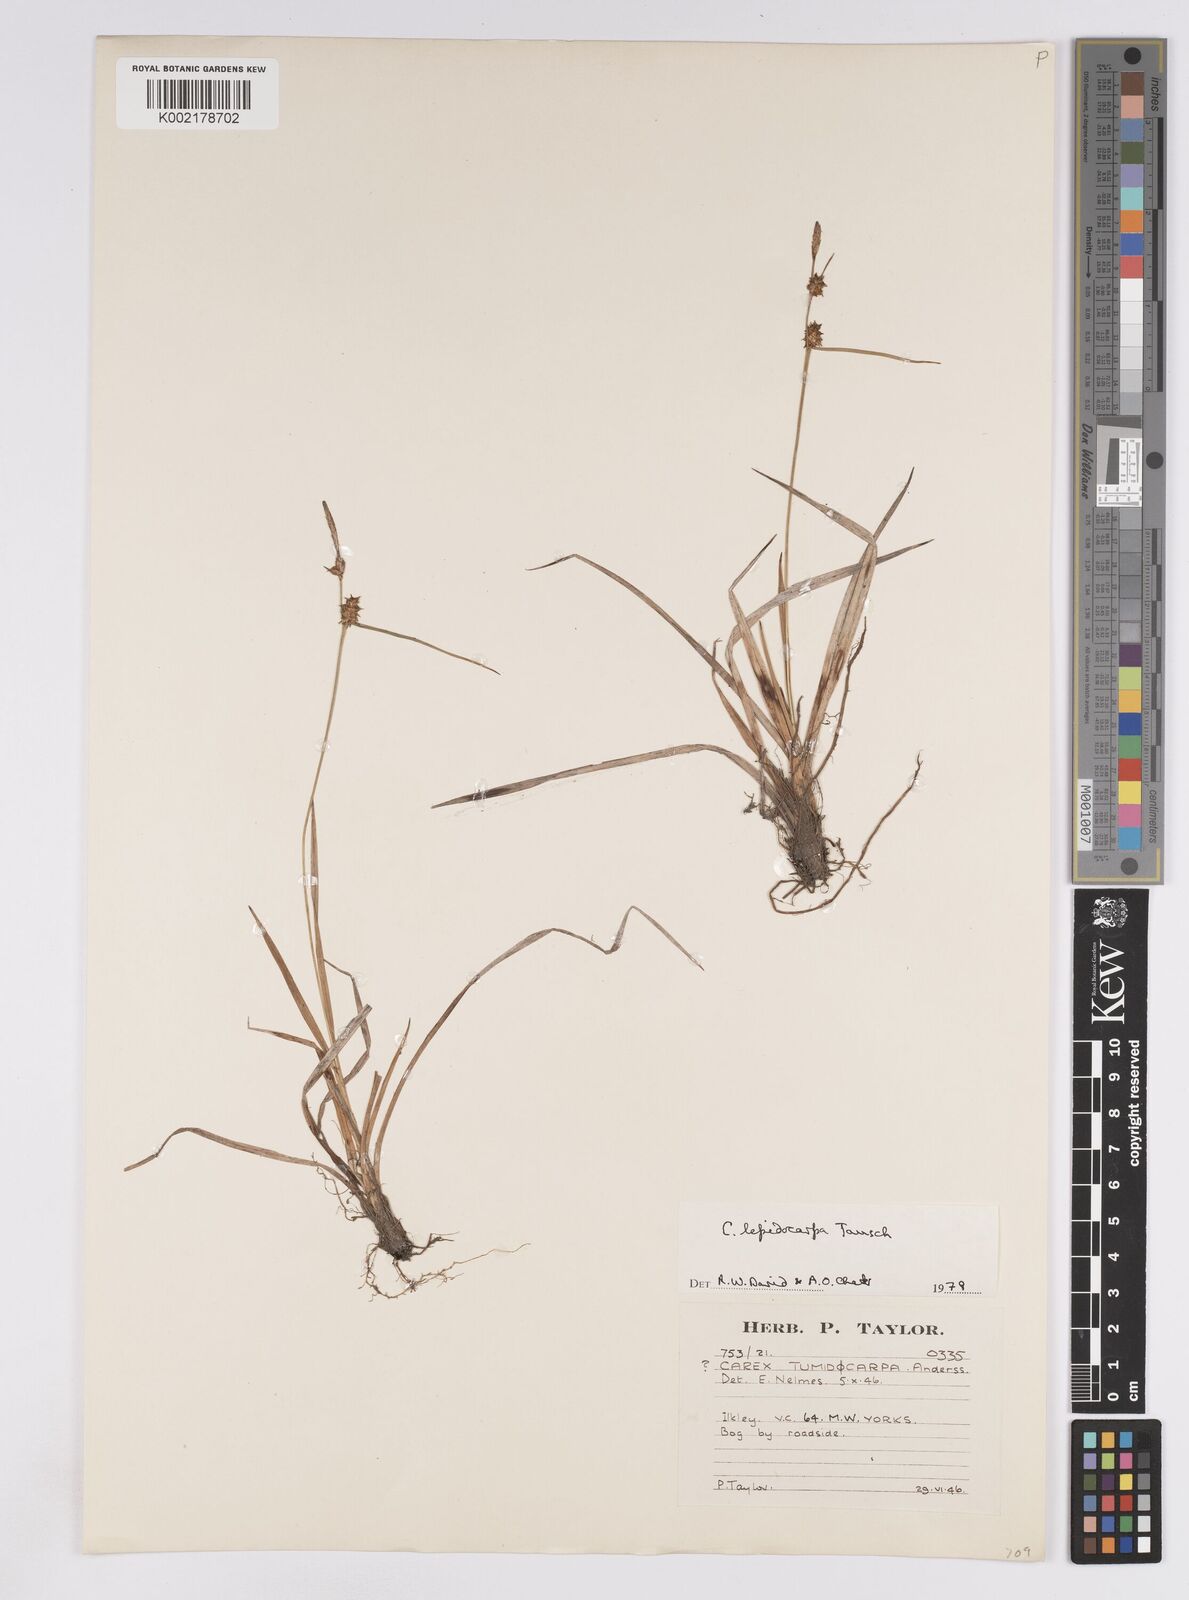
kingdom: Plantae
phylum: Tracheophyta
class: Liliopsida
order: Poales
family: Cyperaceae
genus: Carex
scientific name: Carex lepidocarpa
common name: Long-stalked yellow-sedge
